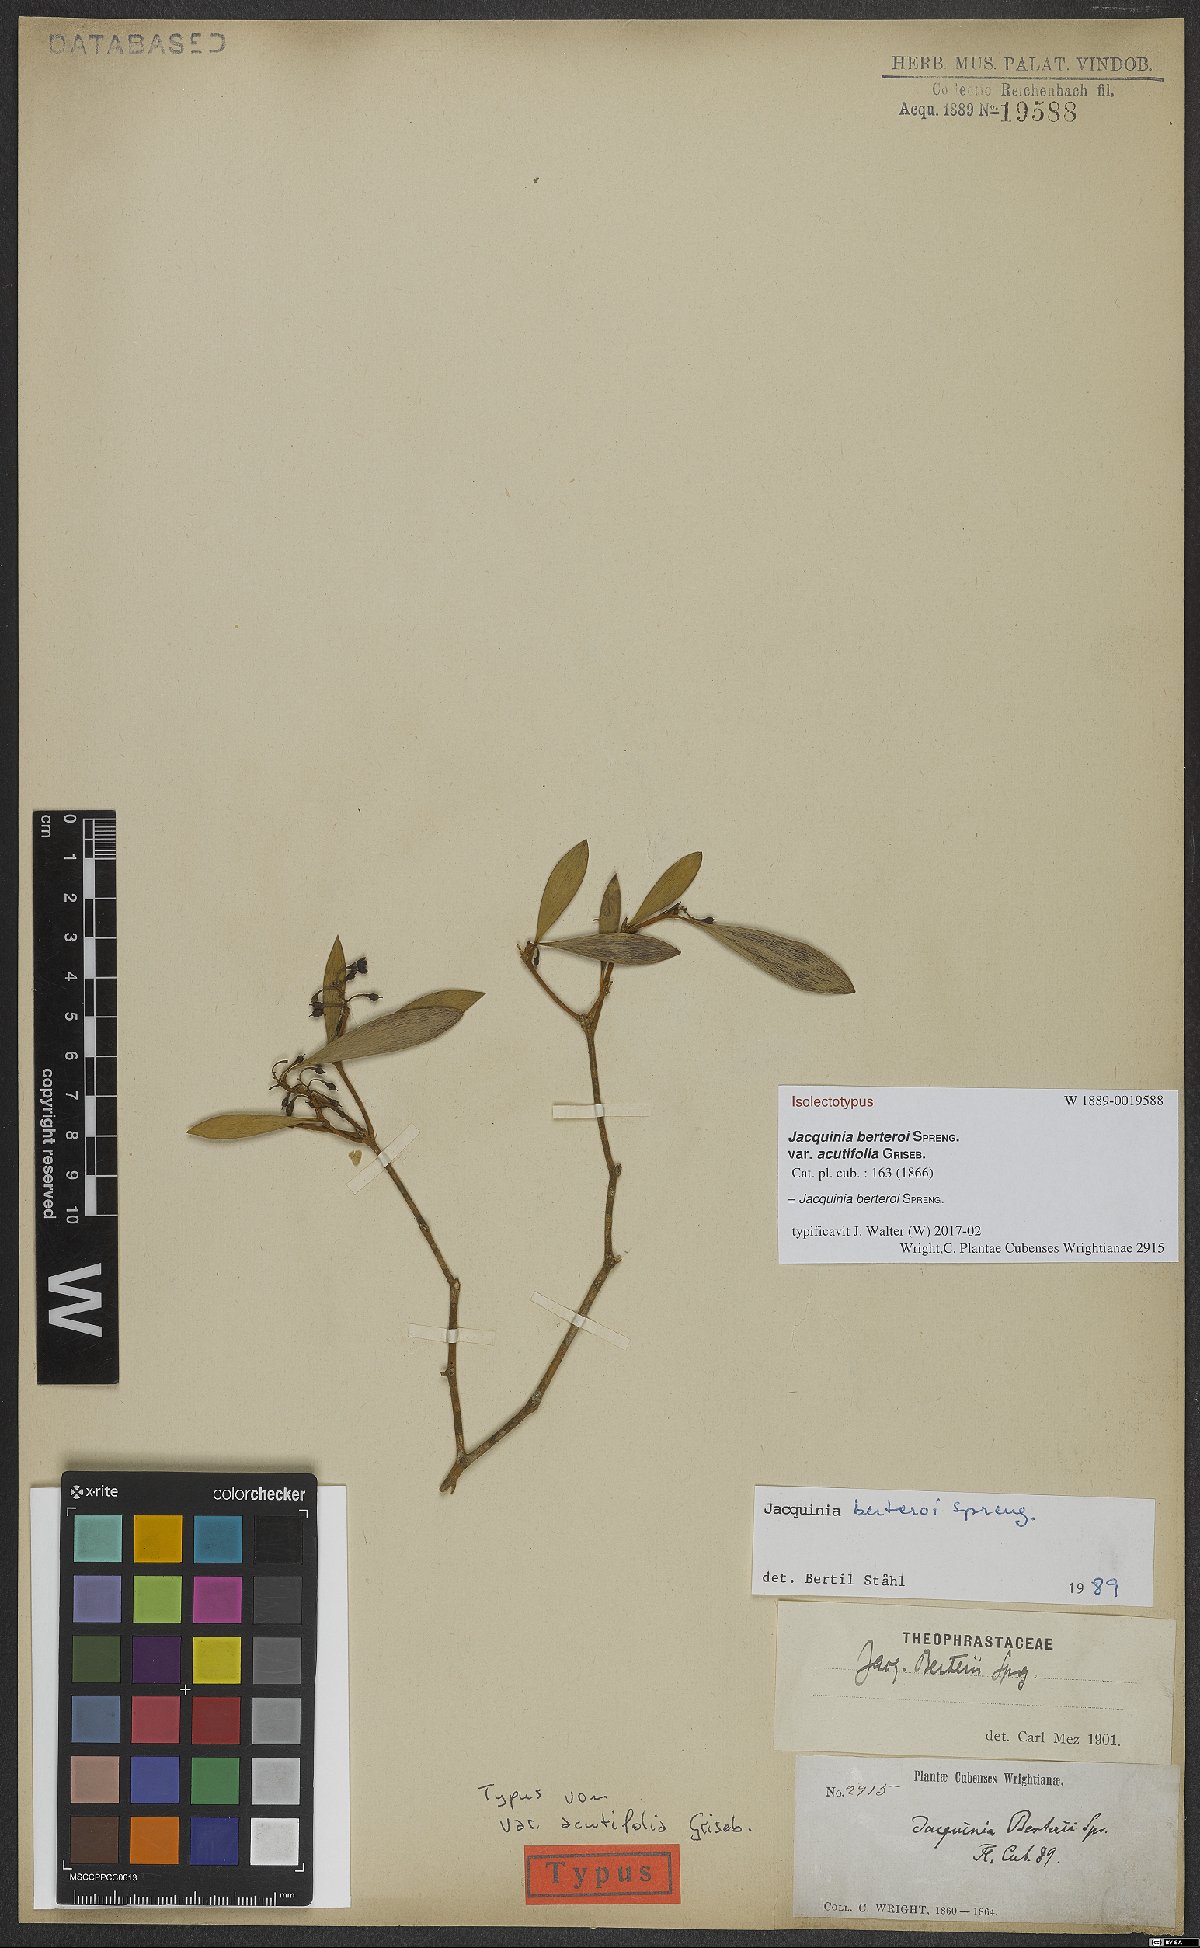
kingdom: Plantae
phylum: Tracheophyta
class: Magnoliopsida
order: Ericales
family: Primulaceae
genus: Jacquinia
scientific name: Jacquinia berteroi
